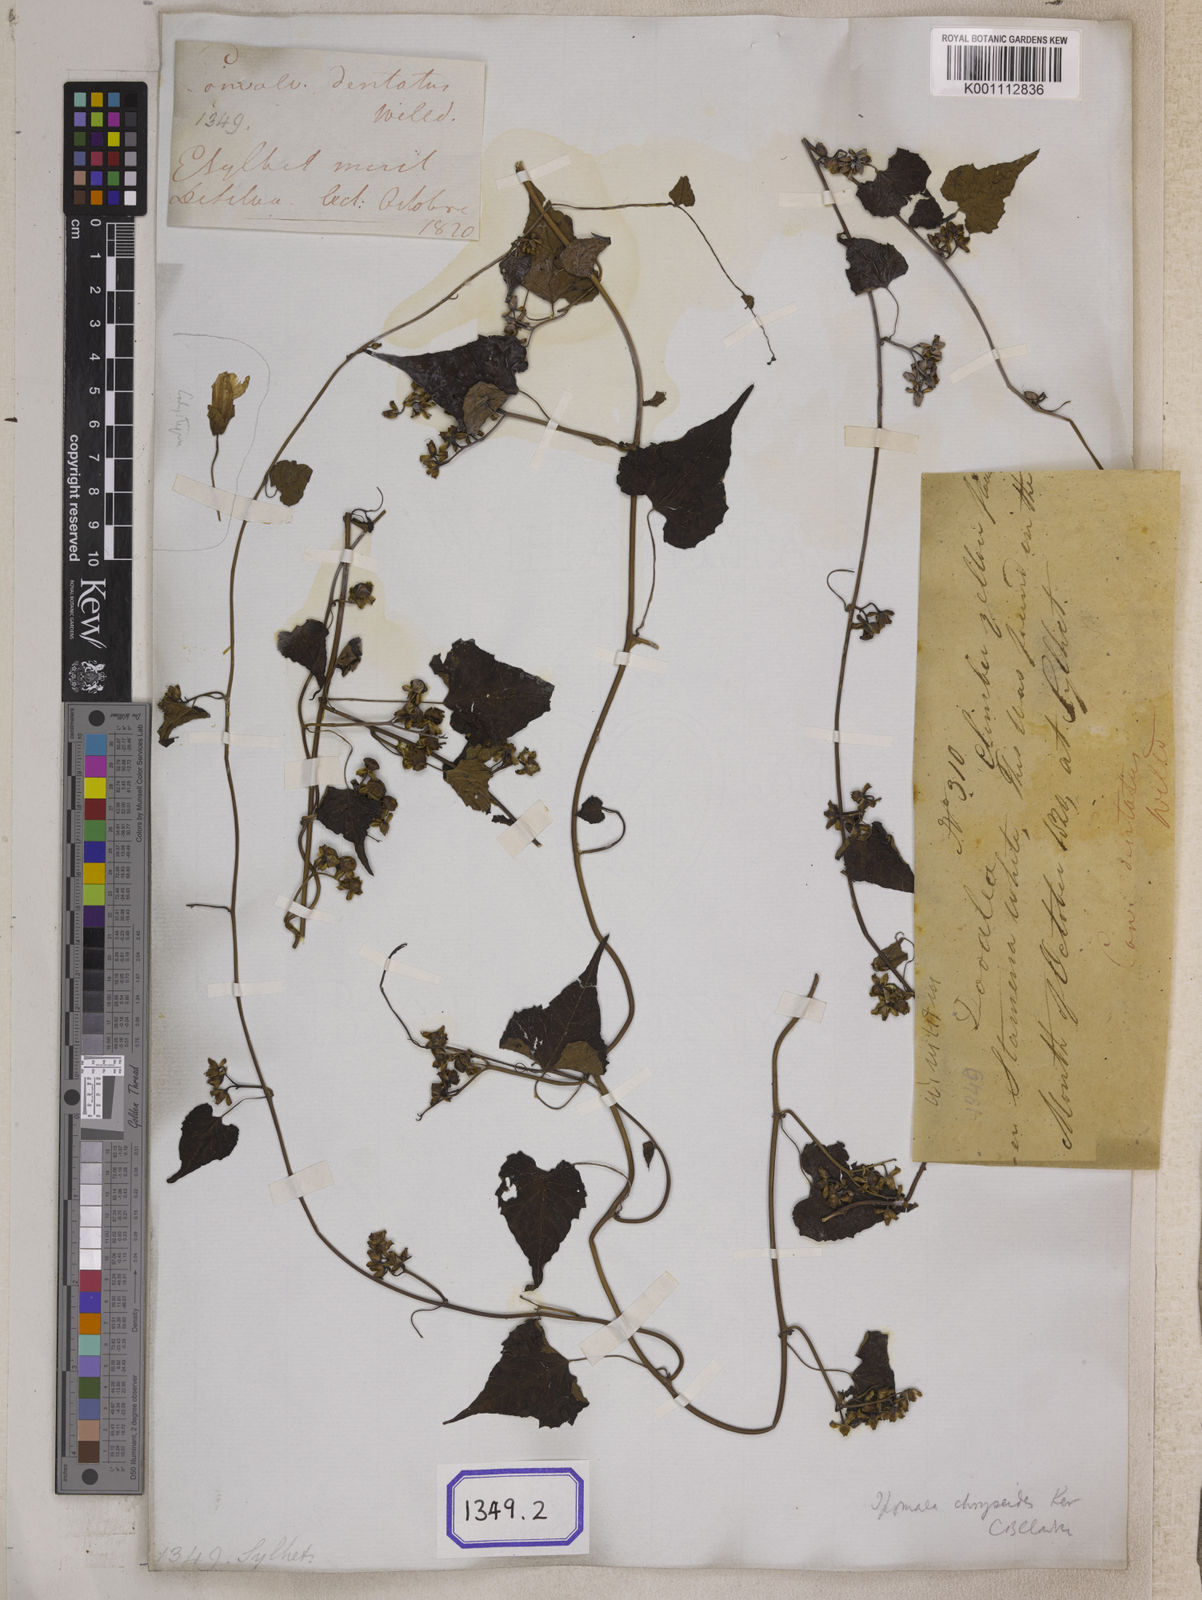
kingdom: Plantae
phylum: Tracheophyta
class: Magnoliopsida
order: Solanales
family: Convolvulaceae
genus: Merremia
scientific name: Merremia hederacea
